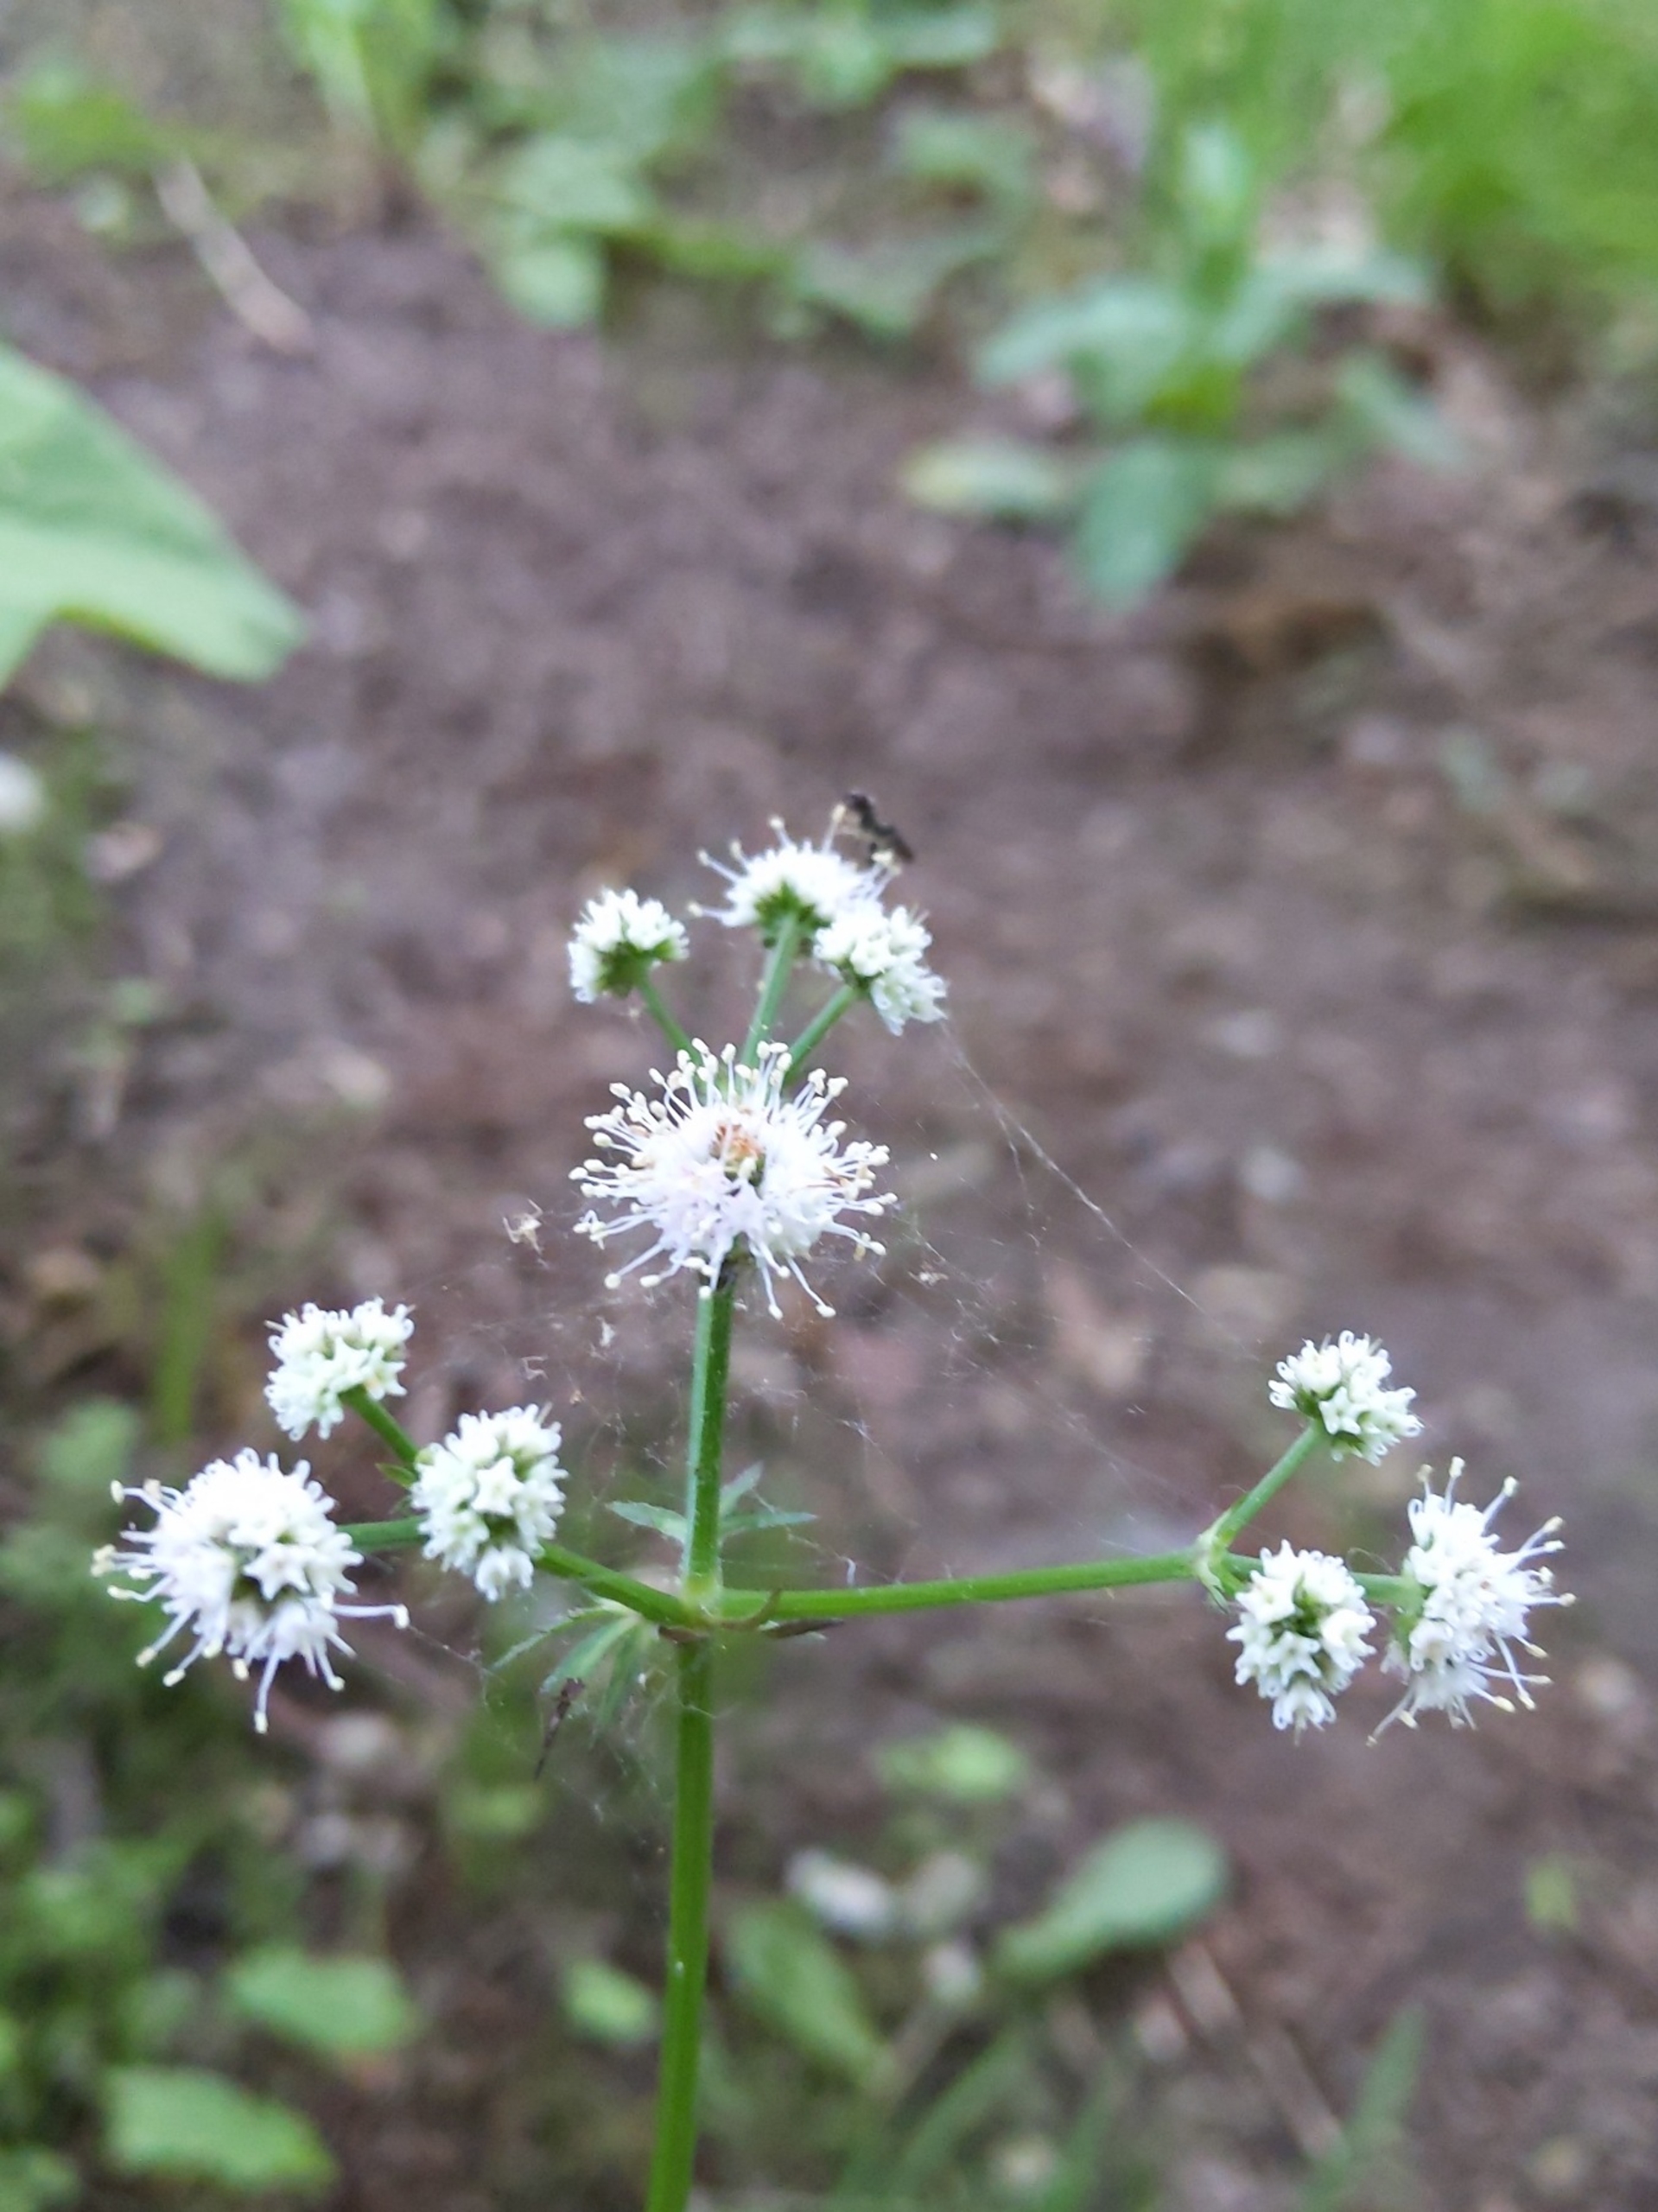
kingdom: Plantae
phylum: Tracheophyta
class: Magnoliopsida
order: Apiales
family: Apiaceae
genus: Sanicula
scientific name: Sanicula europaea
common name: Sanikel
